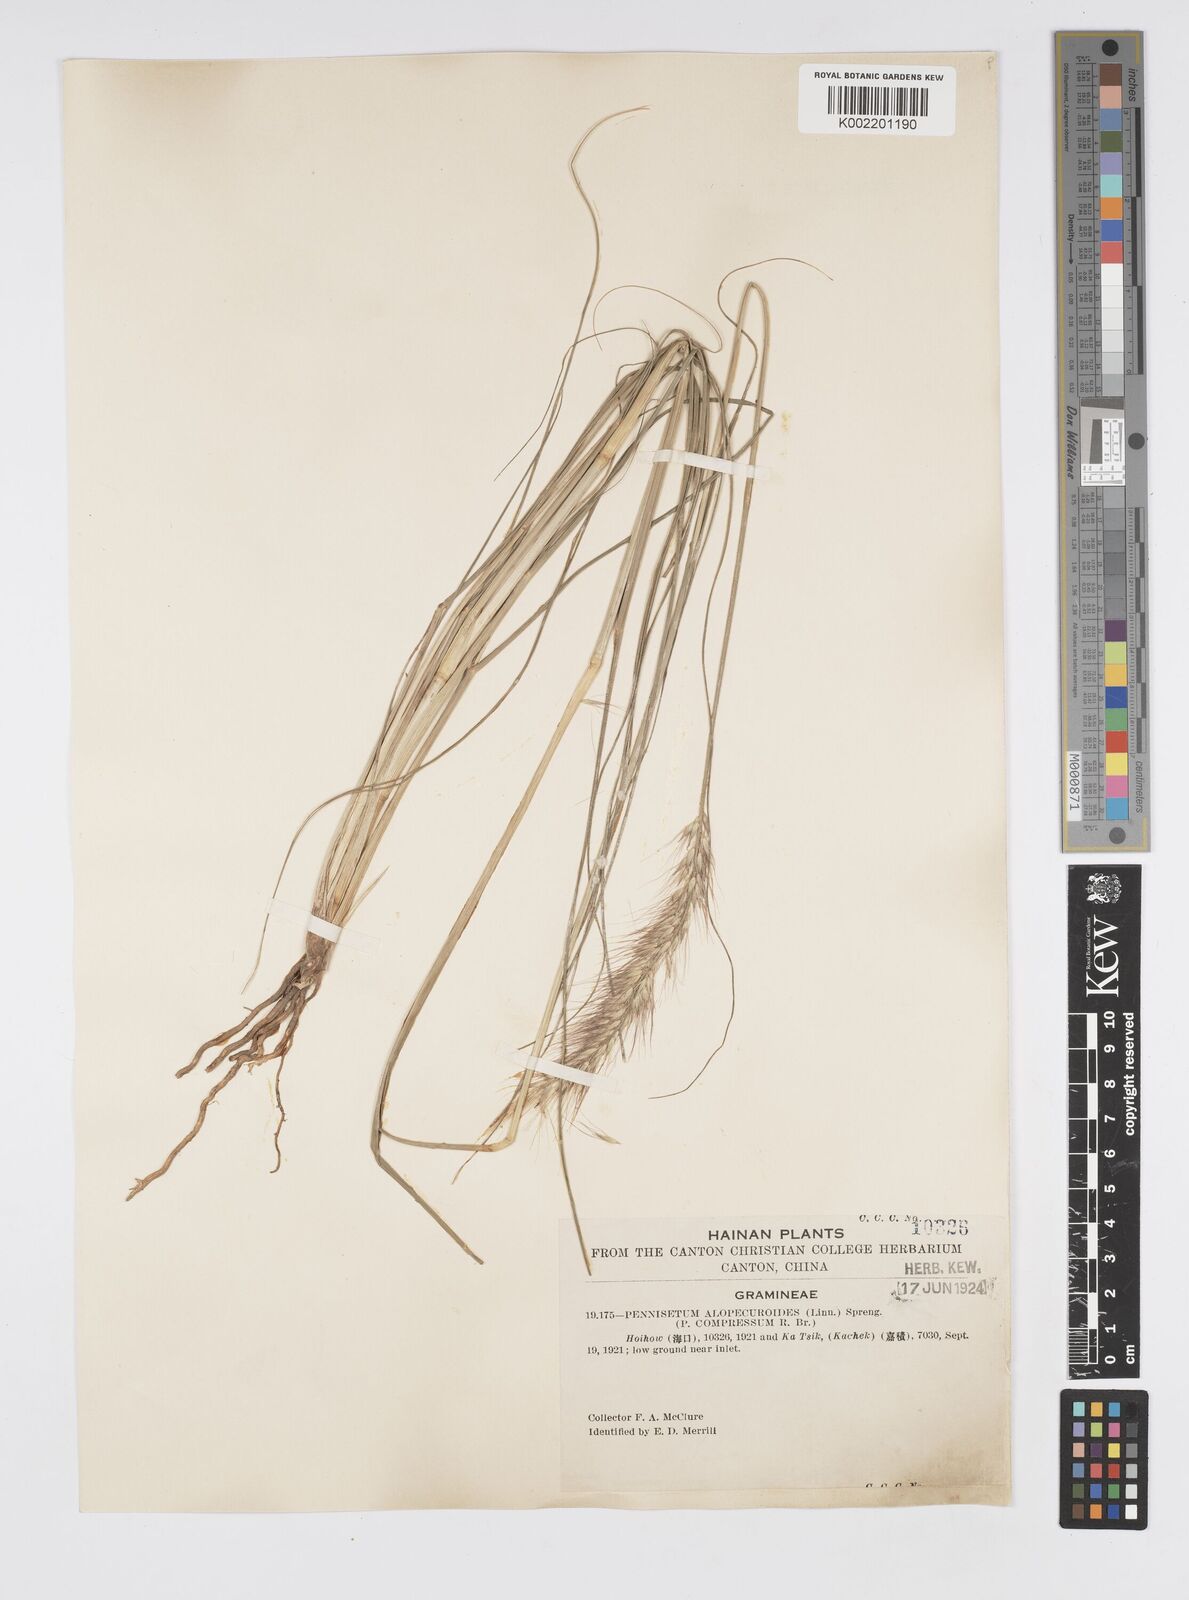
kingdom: Plantae
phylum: Tracheophyta
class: Liliopsida
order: Poales
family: Poaceae
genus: Cenchrus
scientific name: Cenchrus alopecuroides
